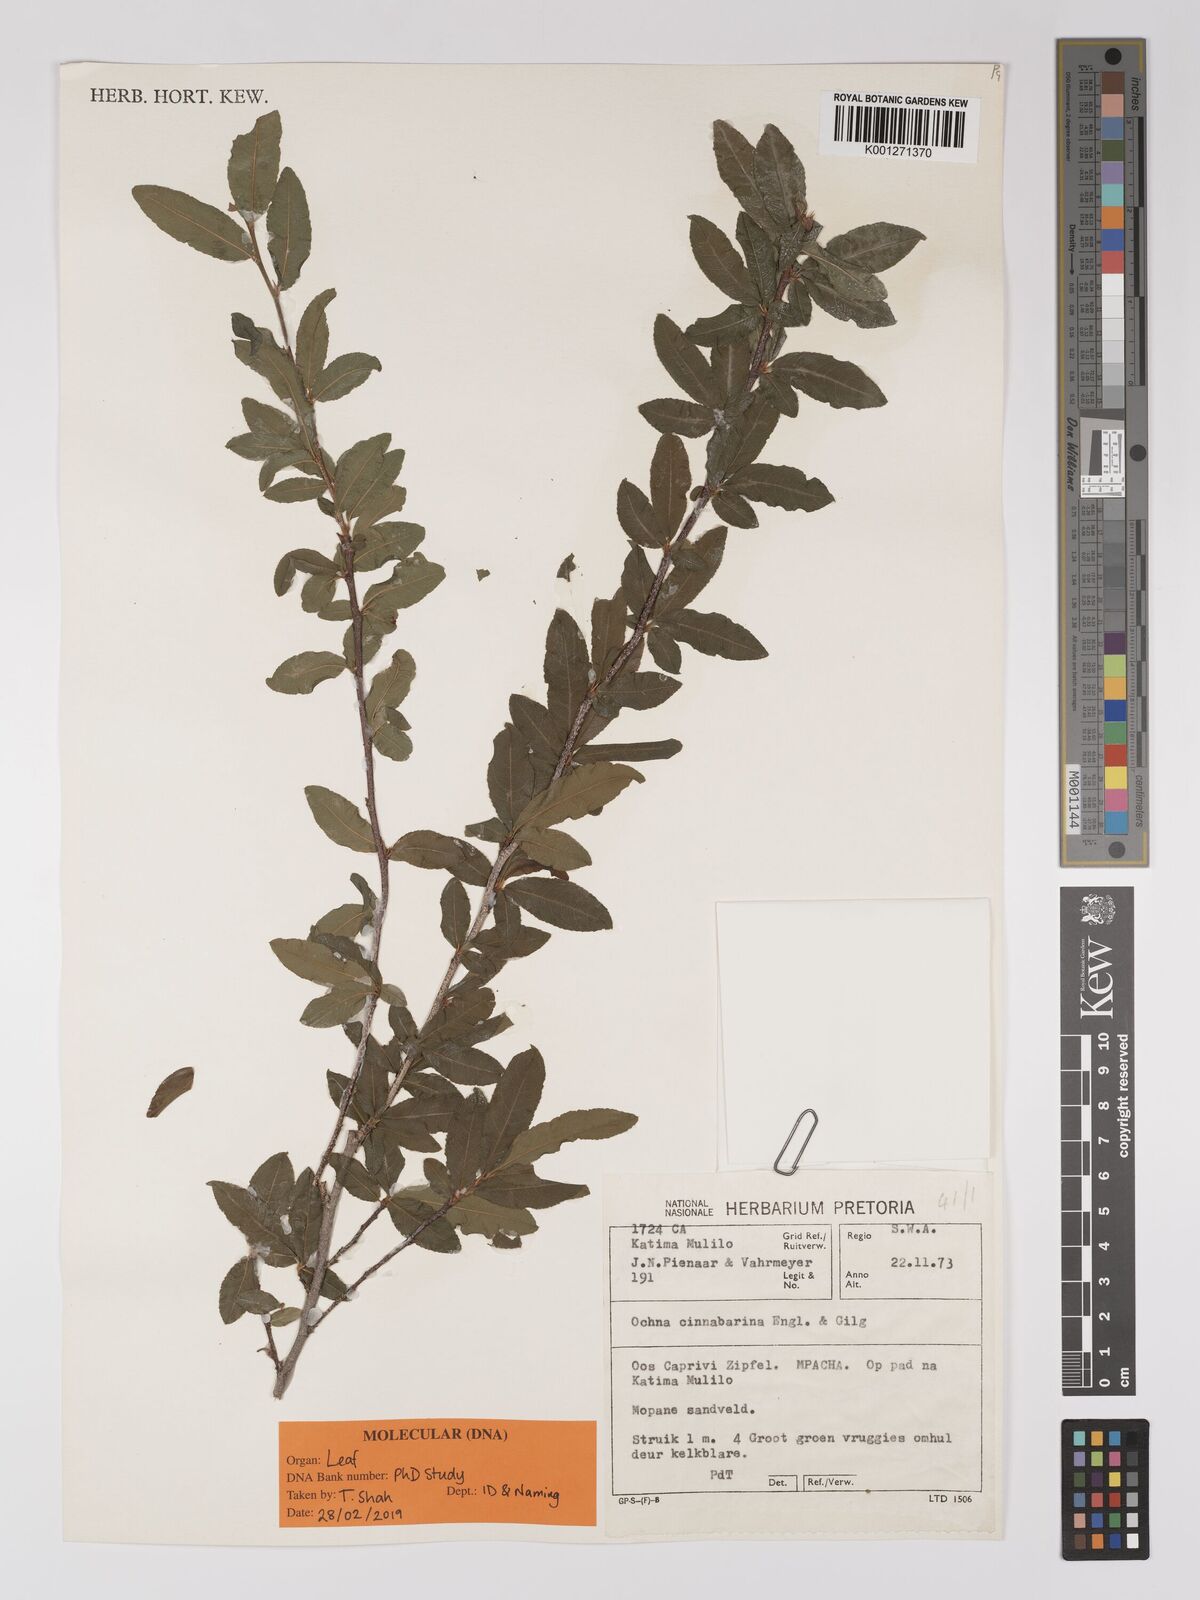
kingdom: Plantae
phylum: Tracheophyta
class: Magnoliopsida
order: Malpighiales
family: Ochnaceae
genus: Ochna
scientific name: Ochna cinnabarina
